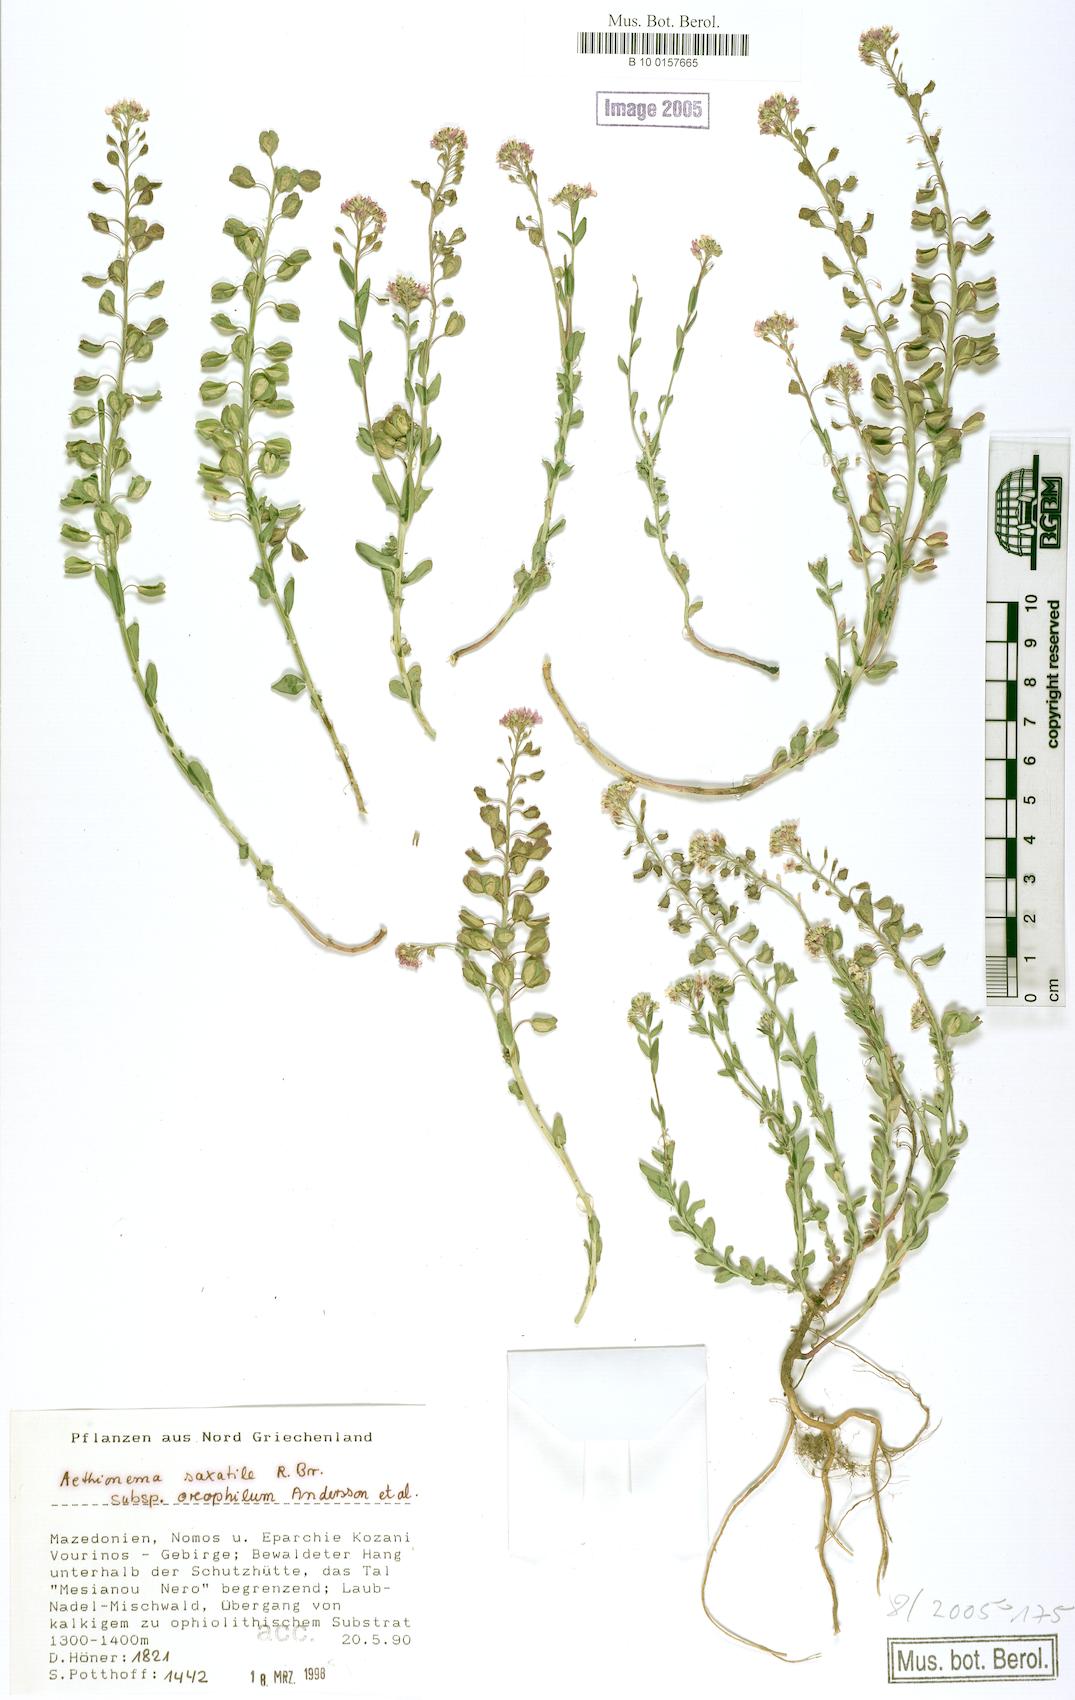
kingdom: Plantae
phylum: Tracheophyta
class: Magnoliopsida
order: Brassicales
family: Brassicaceae
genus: Aethionema
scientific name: Aethionema saxatile
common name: Burnt candytuft
